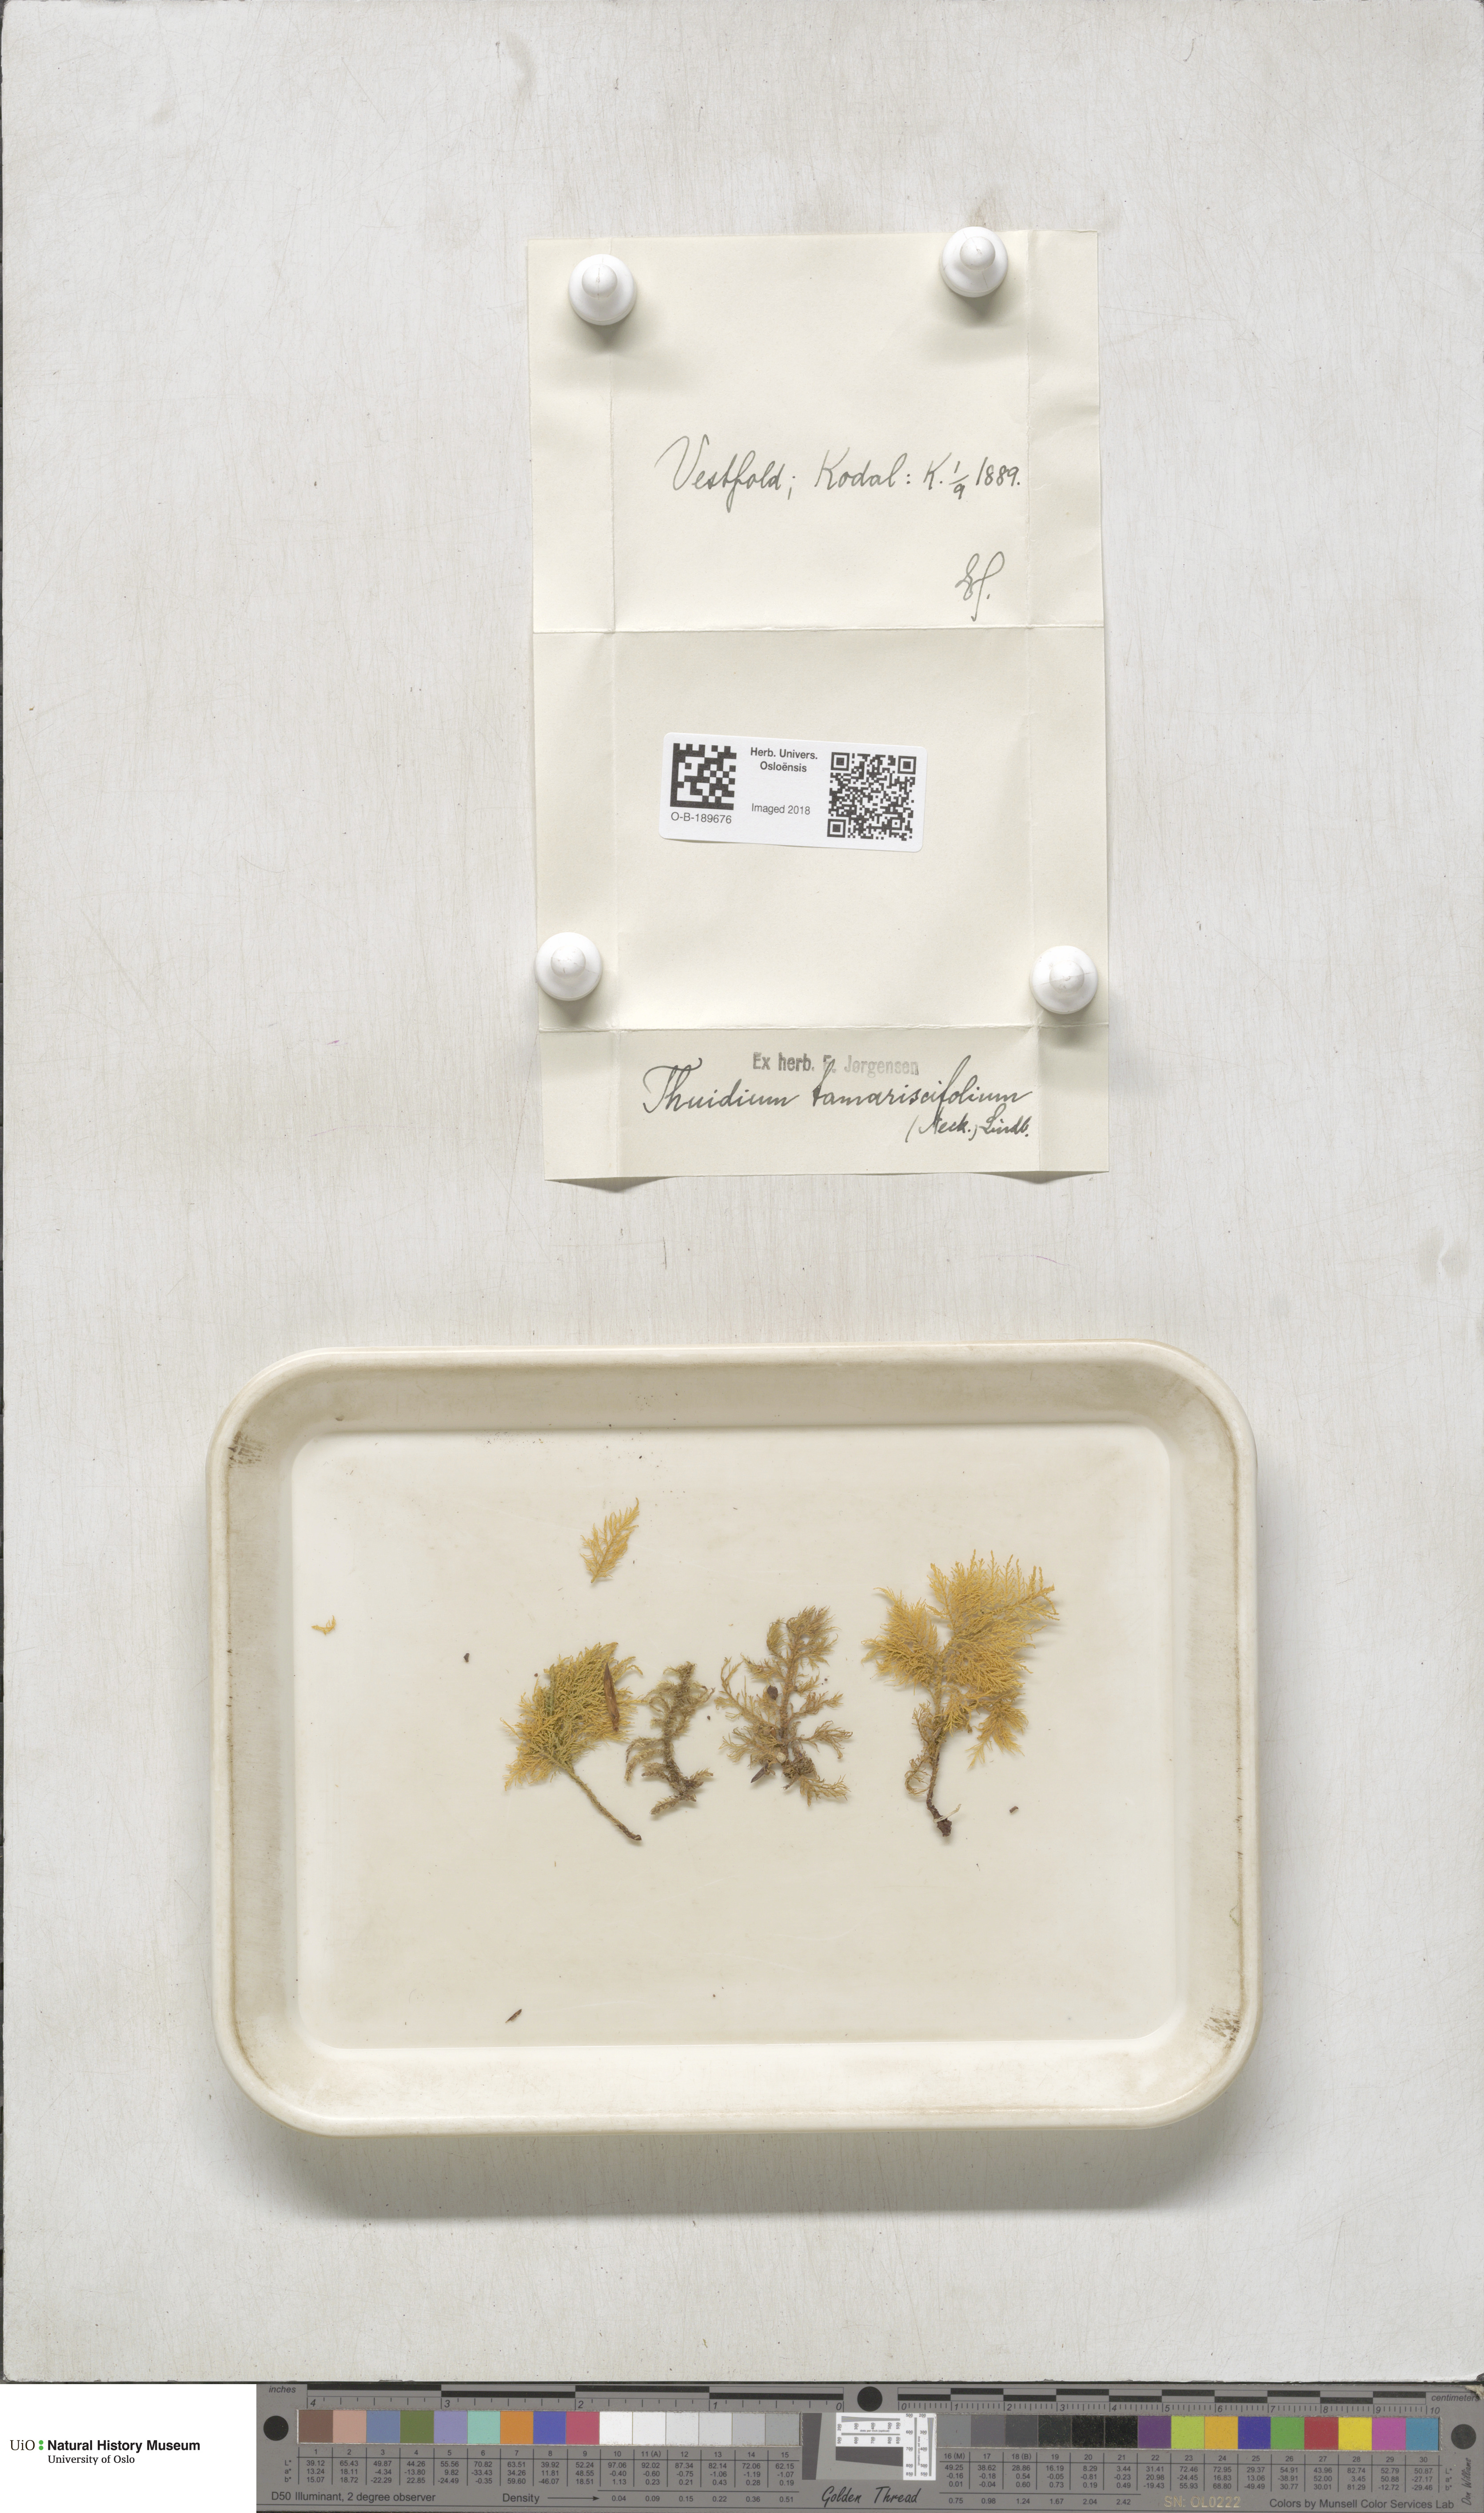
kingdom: Plantae
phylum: Bryophyta
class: Bryopsida
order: Hypnales
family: Thuidiaceae
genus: Thuidium
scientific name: Thuidium tamariscinum
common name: Common tamarisk-moss
